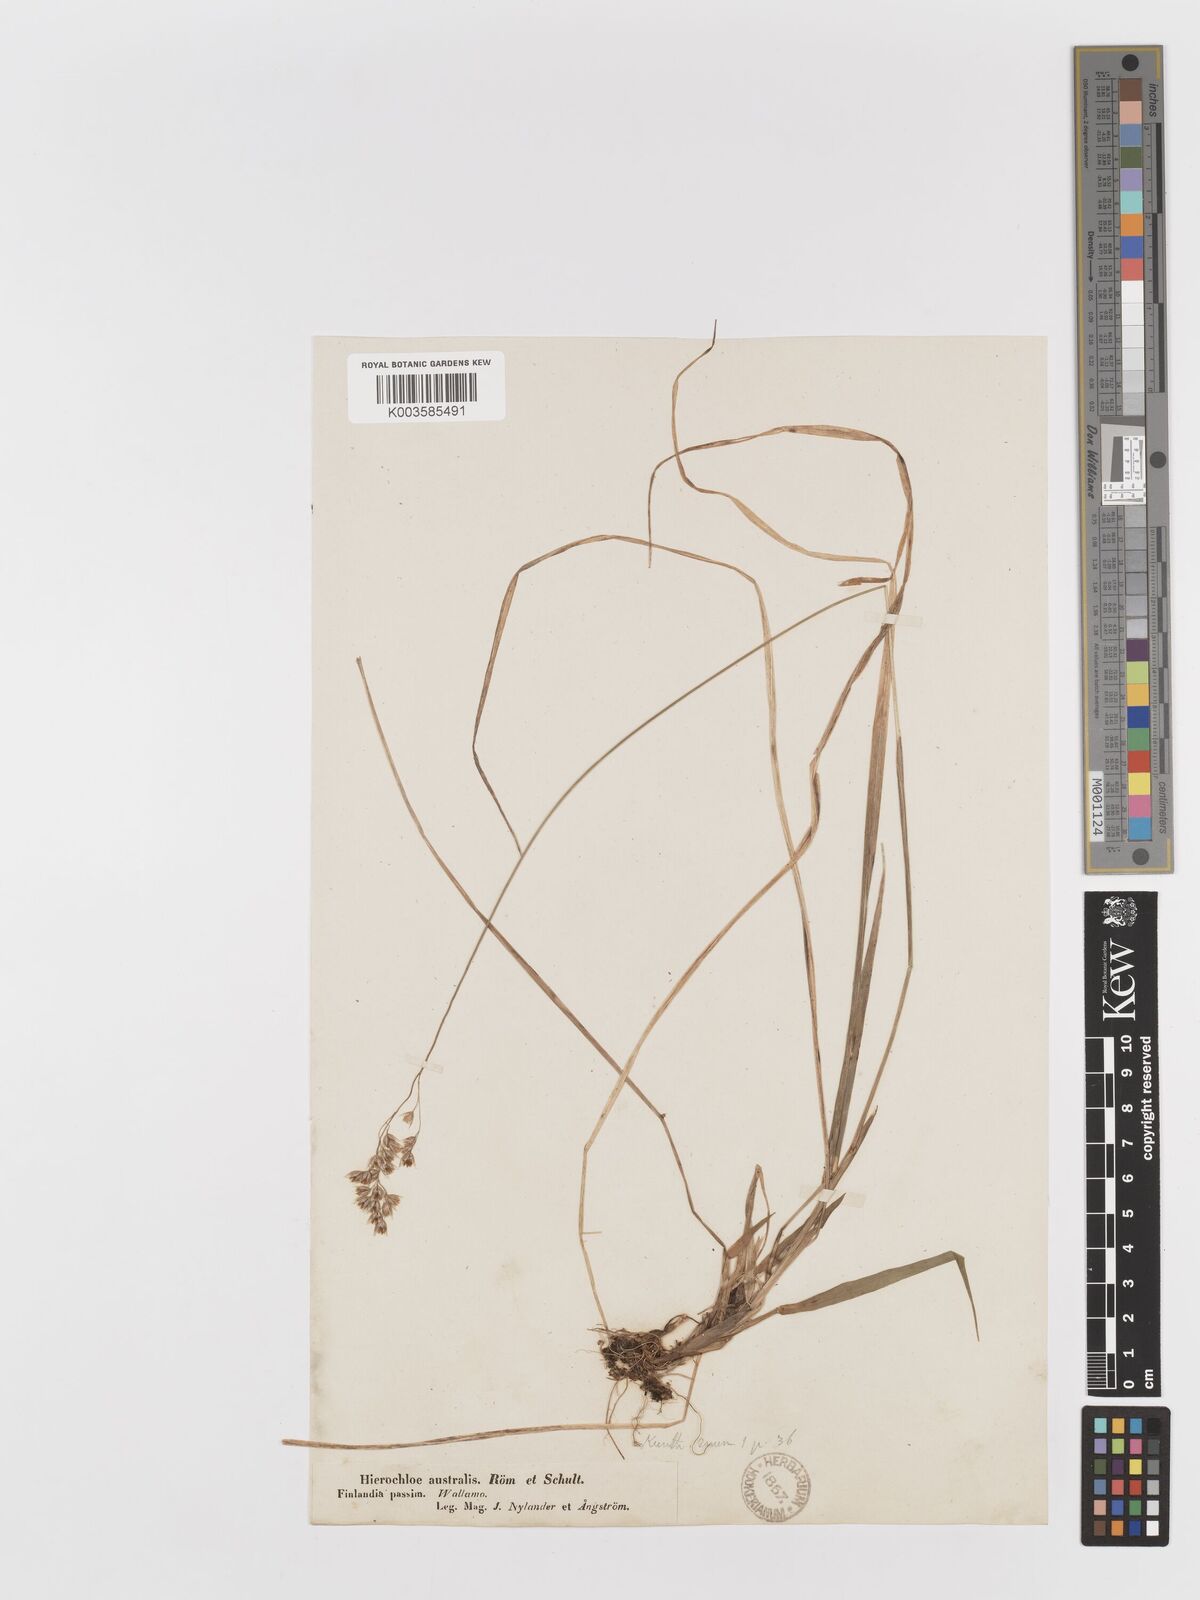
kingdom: Plantae
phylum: Tracheophyta
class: Liliopsida
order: Poales
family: Poaceae
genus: Anthoxanthum
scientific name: Anthoxanthum australe
